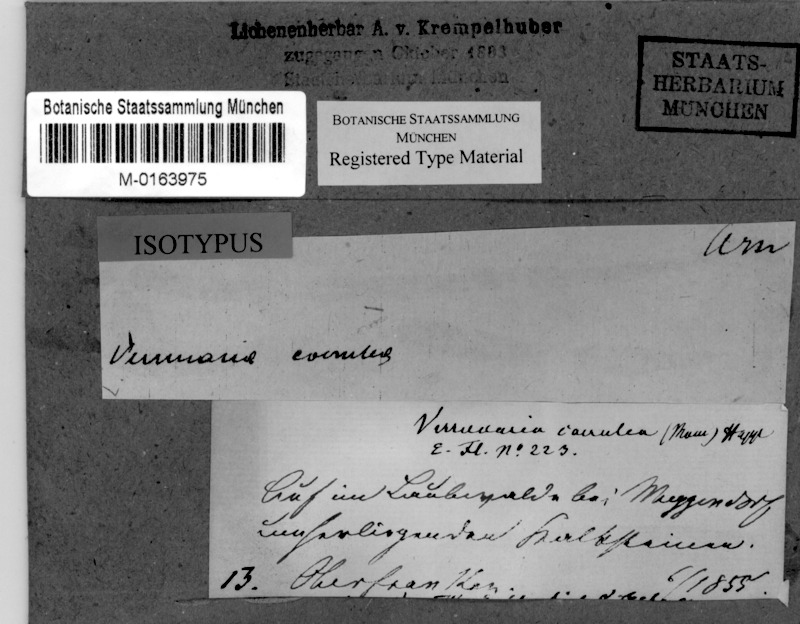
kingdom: Fungi
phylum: Ascomycota
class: Eurotiomycetes
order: Verrucariales
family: Verrucariaceae
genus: Verrucaria
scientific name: Verrucaria pinguicula
